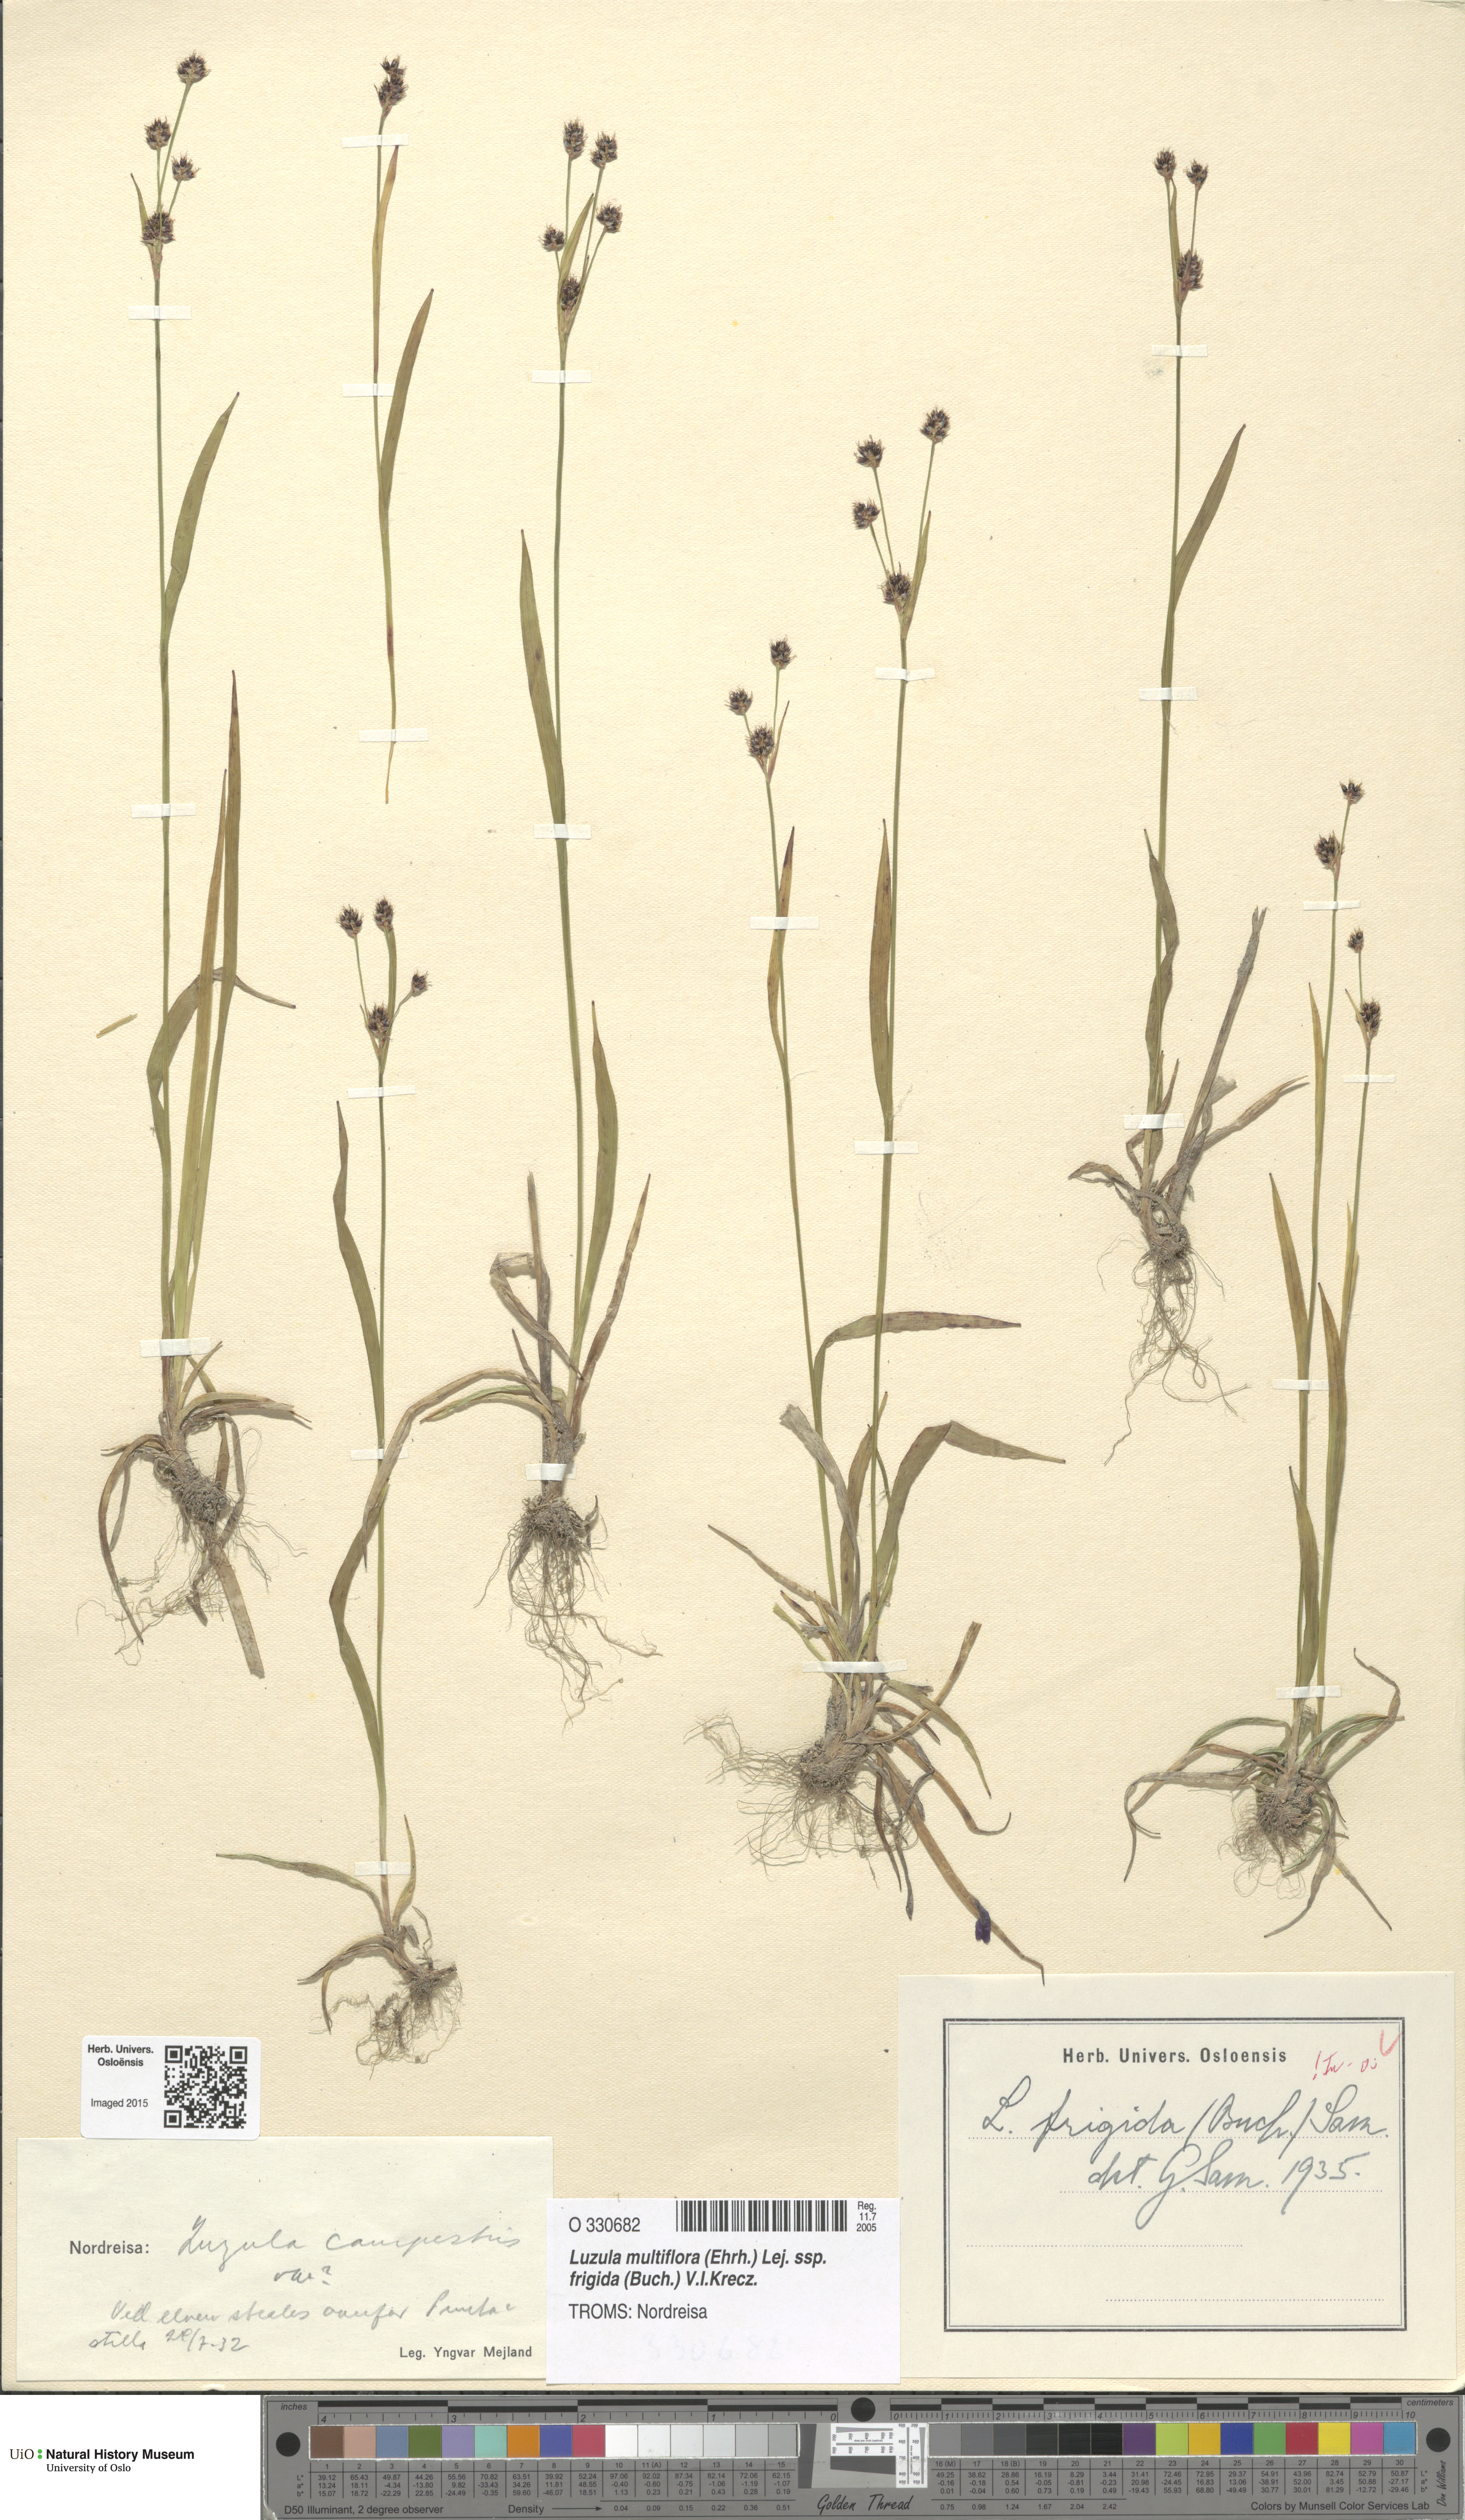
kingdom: Plantae
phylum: Tracheophyta
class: Liliopsida
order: Poales
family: Juncaceae
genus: Luzula
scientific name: Luzula multiflora
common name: Heath wood-rush
